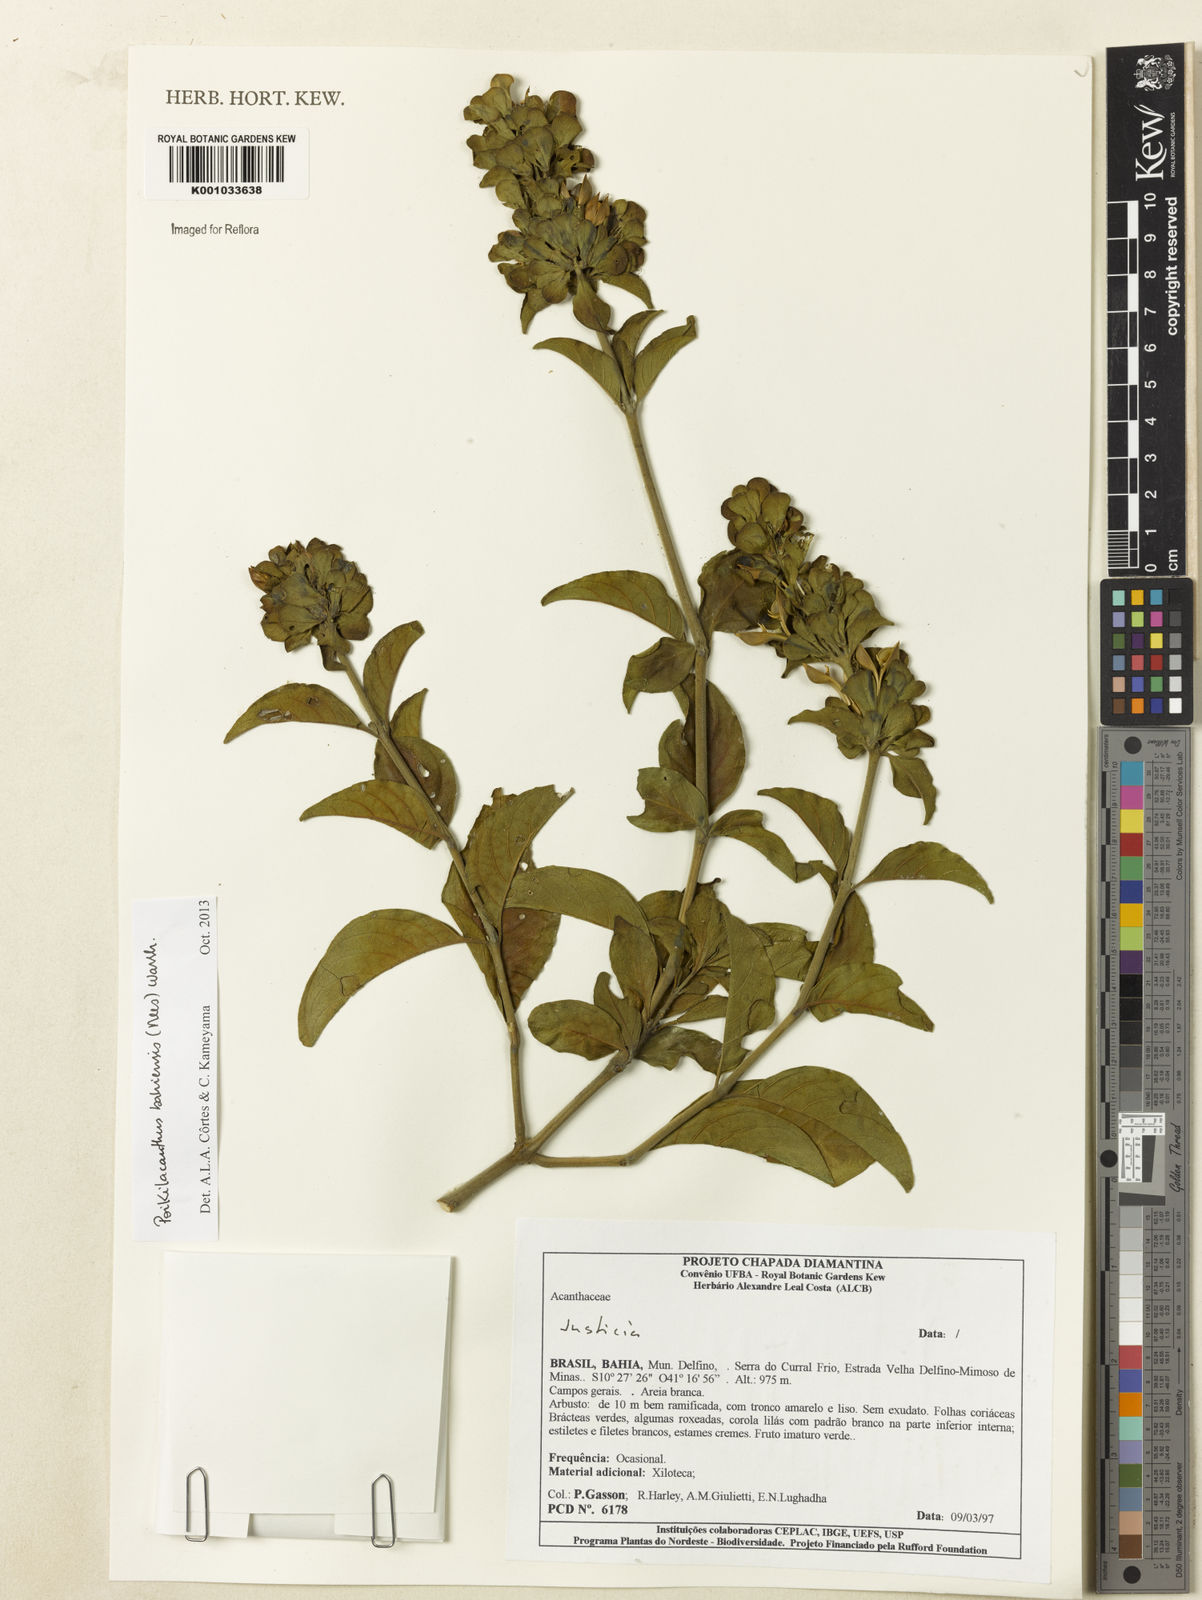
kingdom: Plantae
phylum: Tracheophyta
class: Magnoliopsida
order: Lamiales
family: Acanthaceae
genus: Poikilacanthus
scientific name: Poikilacanthus bahiensis
